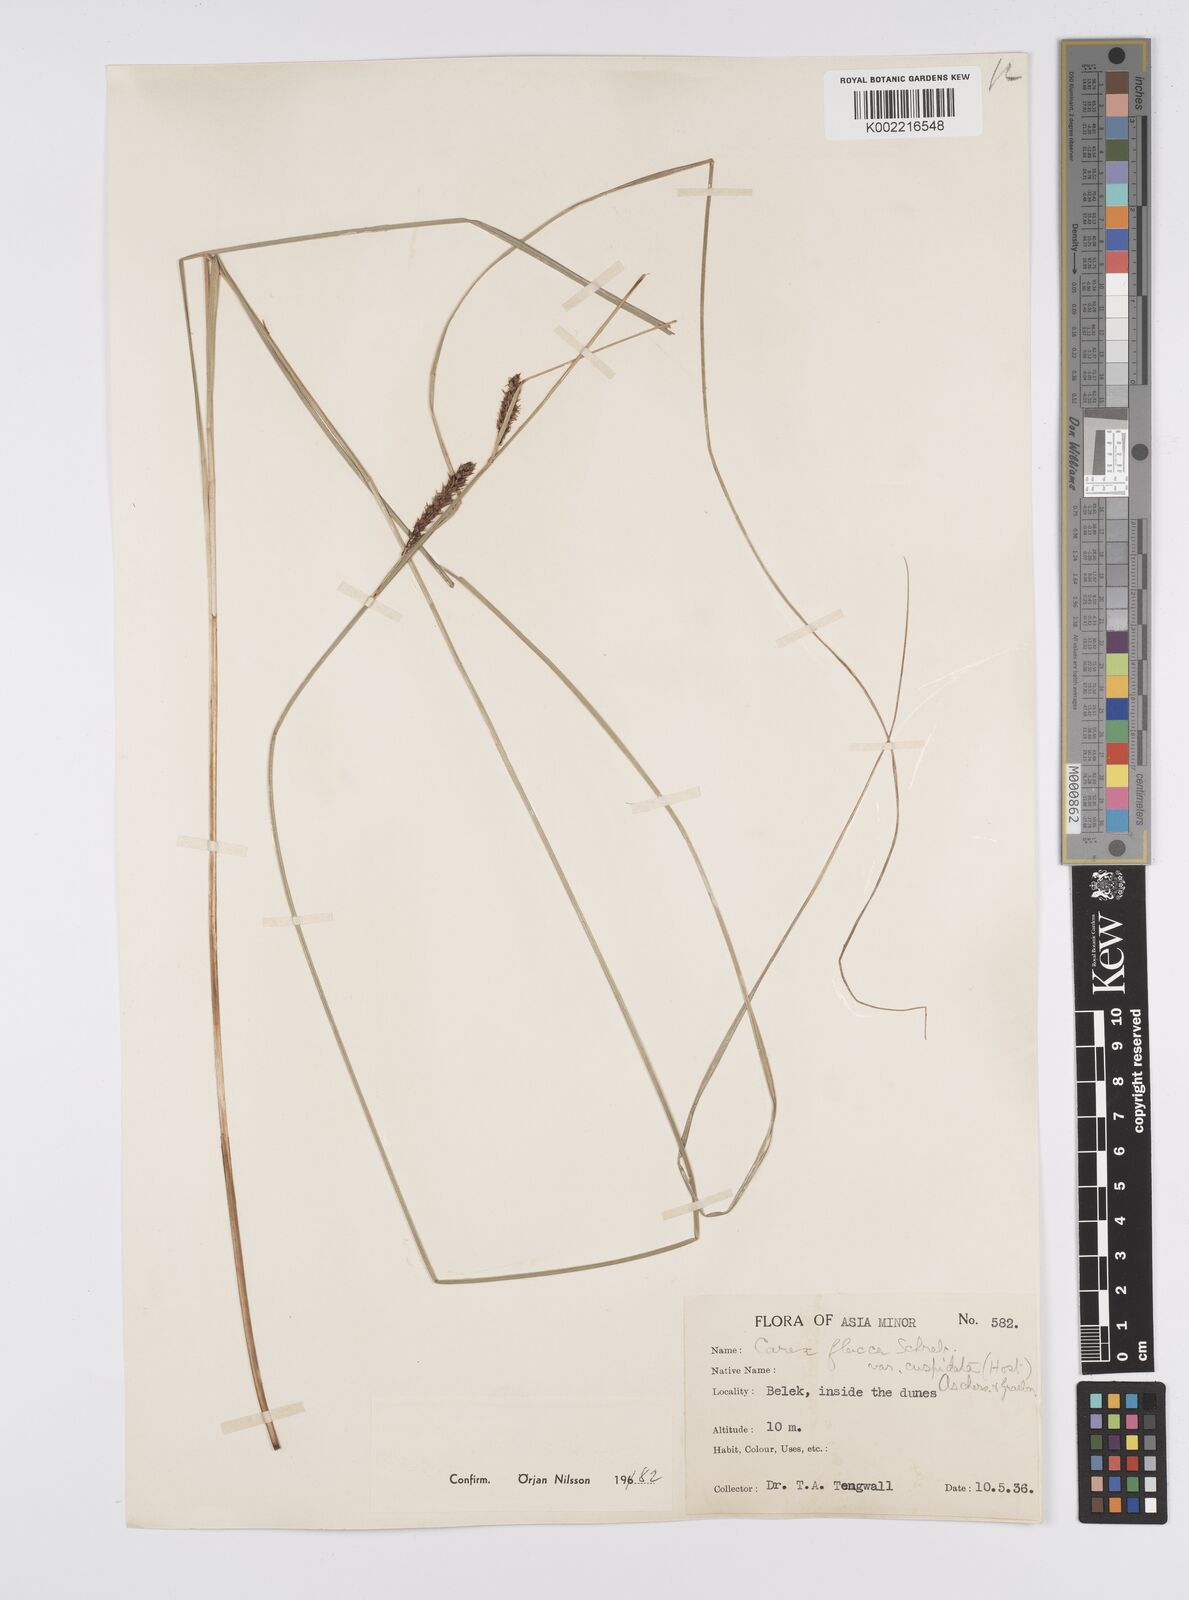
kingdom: Plantae
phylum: Tracheophyta
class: Liliopsida
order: Poales
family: Cyperaceae
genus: Carex
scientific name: Carex flacca
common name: Glaucous sedge
